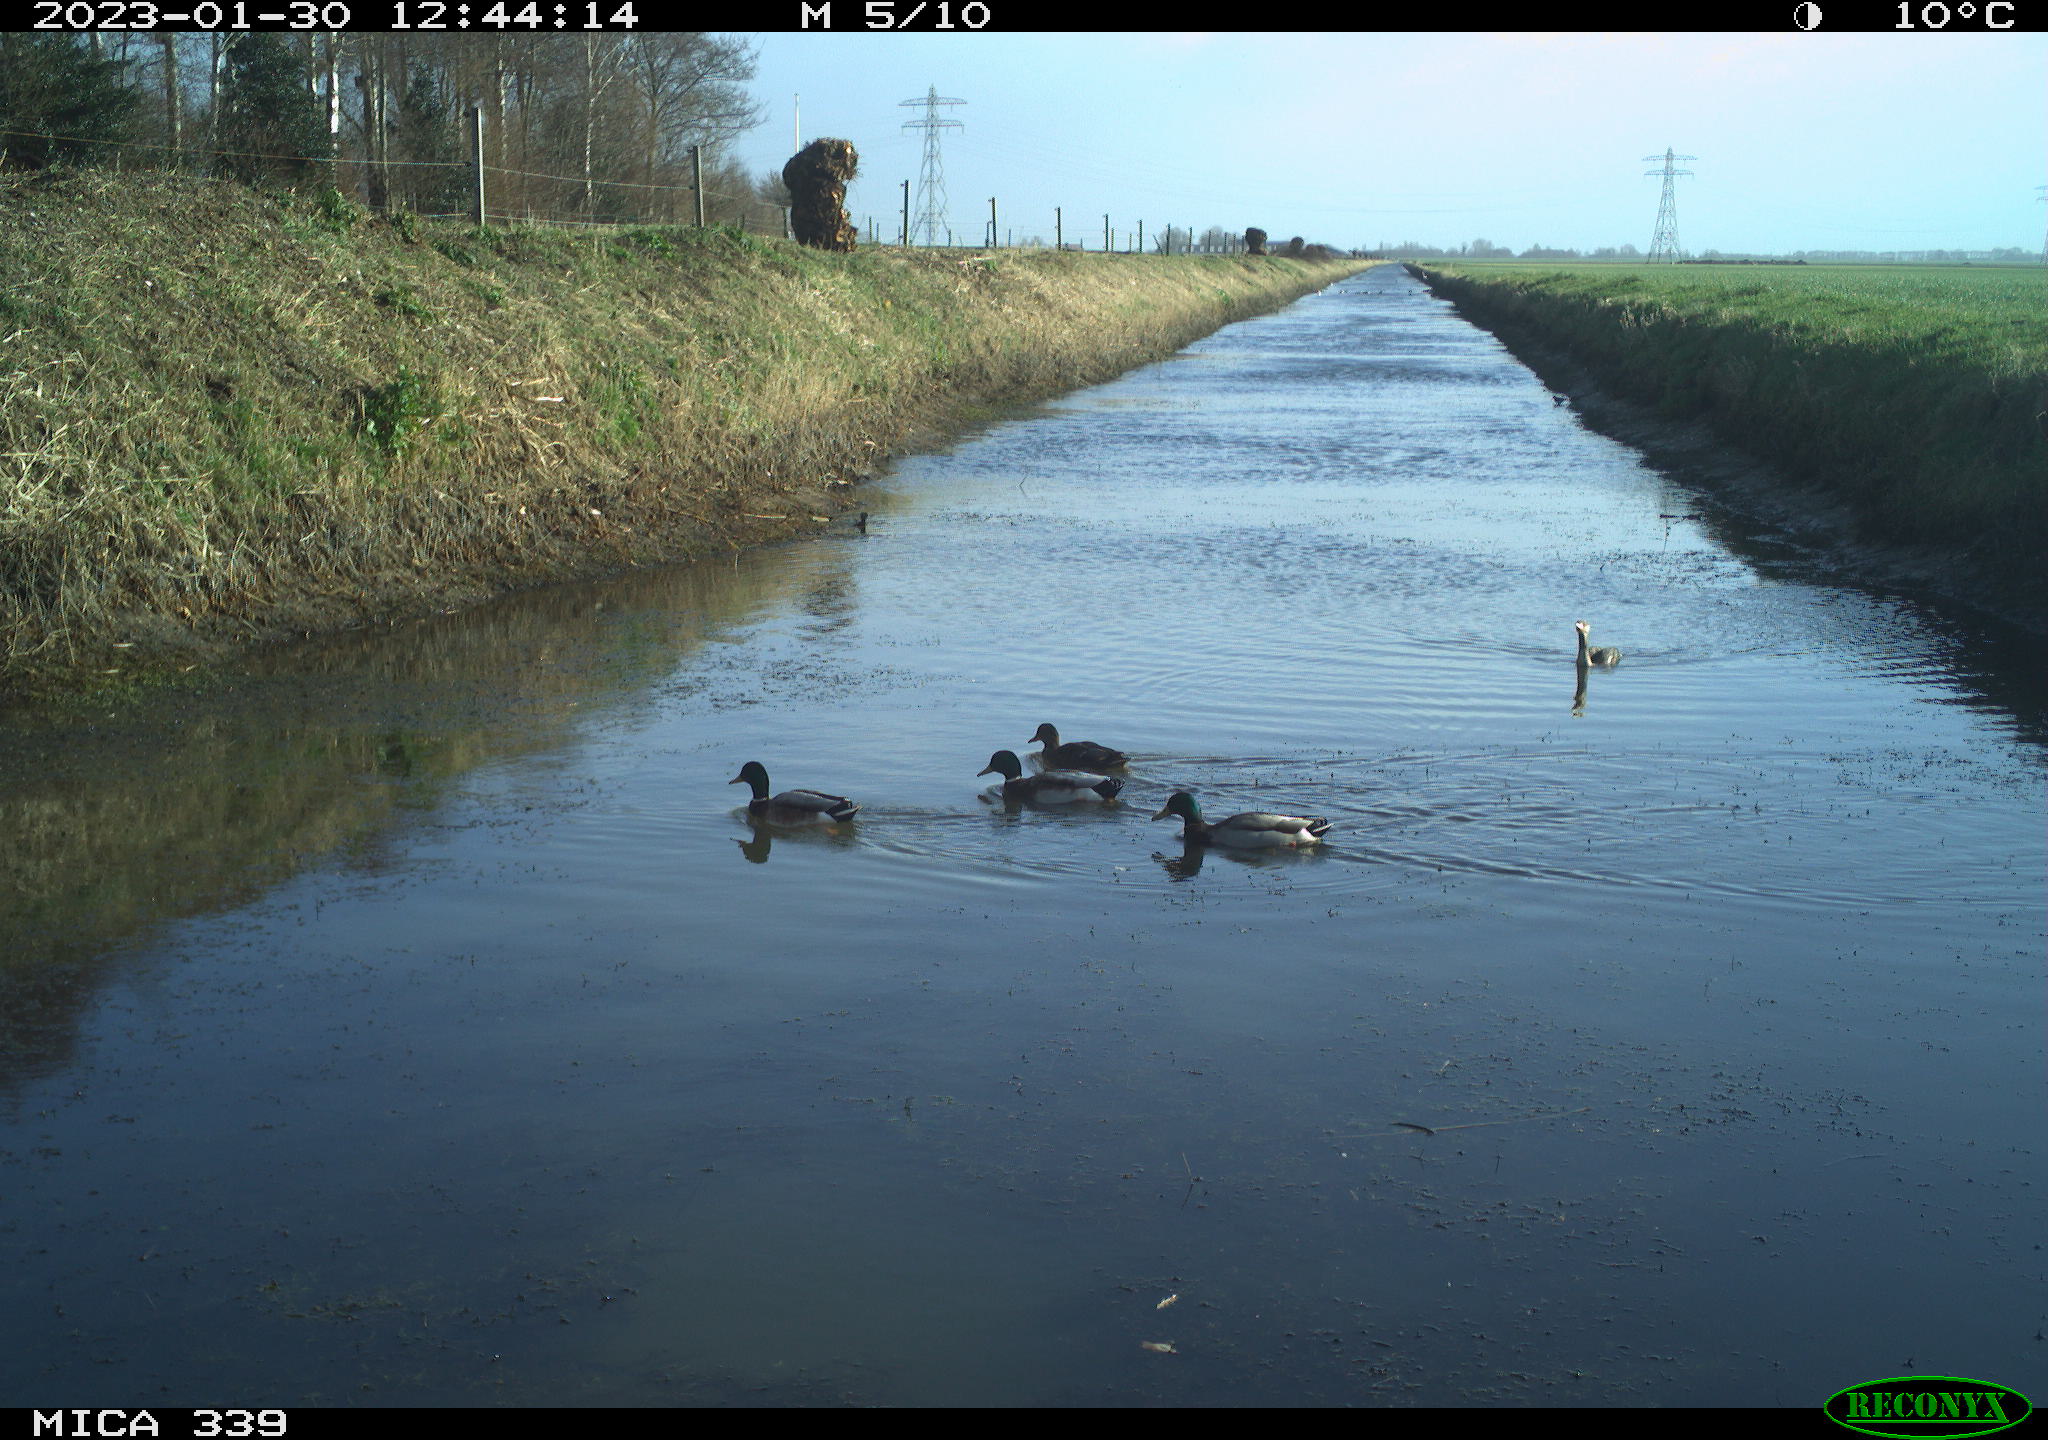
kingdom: Animalia
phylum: Chordata
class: Aves
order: Anseriformes
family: Anatidae
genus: Anas
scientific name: Anas
